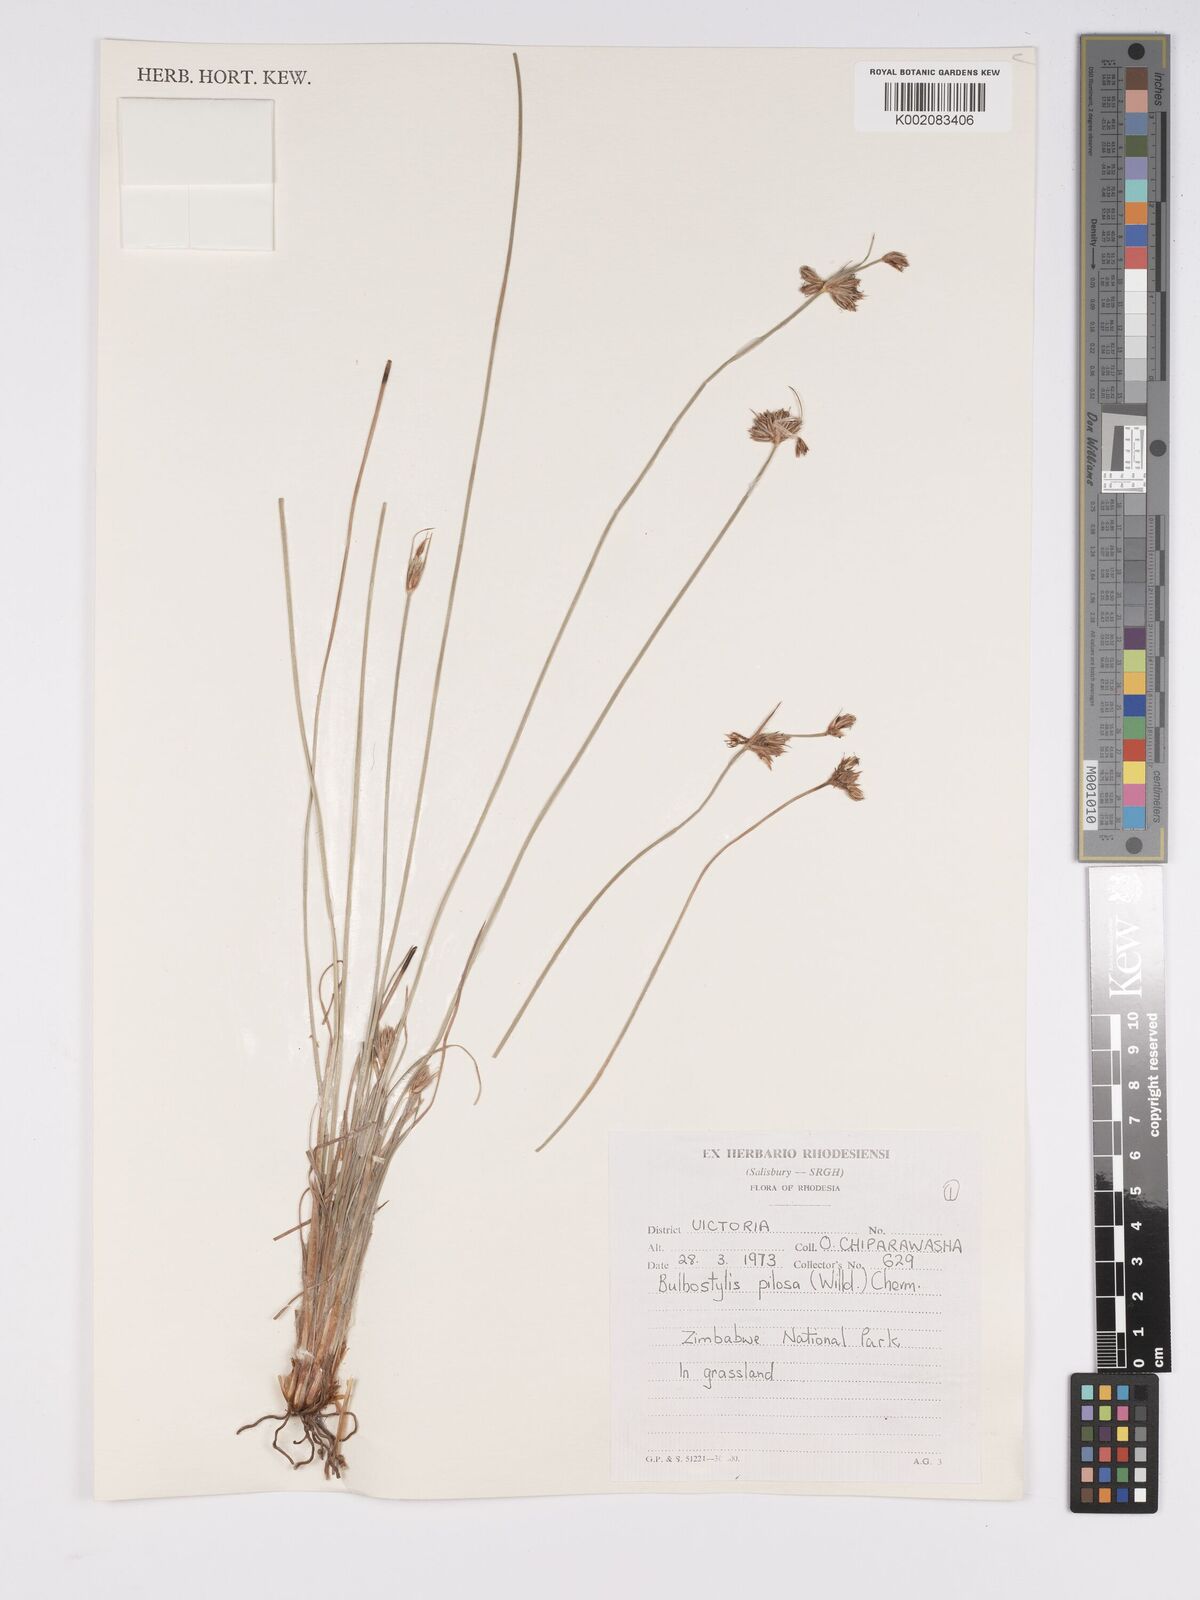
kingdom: Plantae
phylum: Tracheophyta
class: Liliopsida
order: Poales
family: Cyperaceae
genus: Bulbostylis
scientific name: Bulbostylis pilosa
